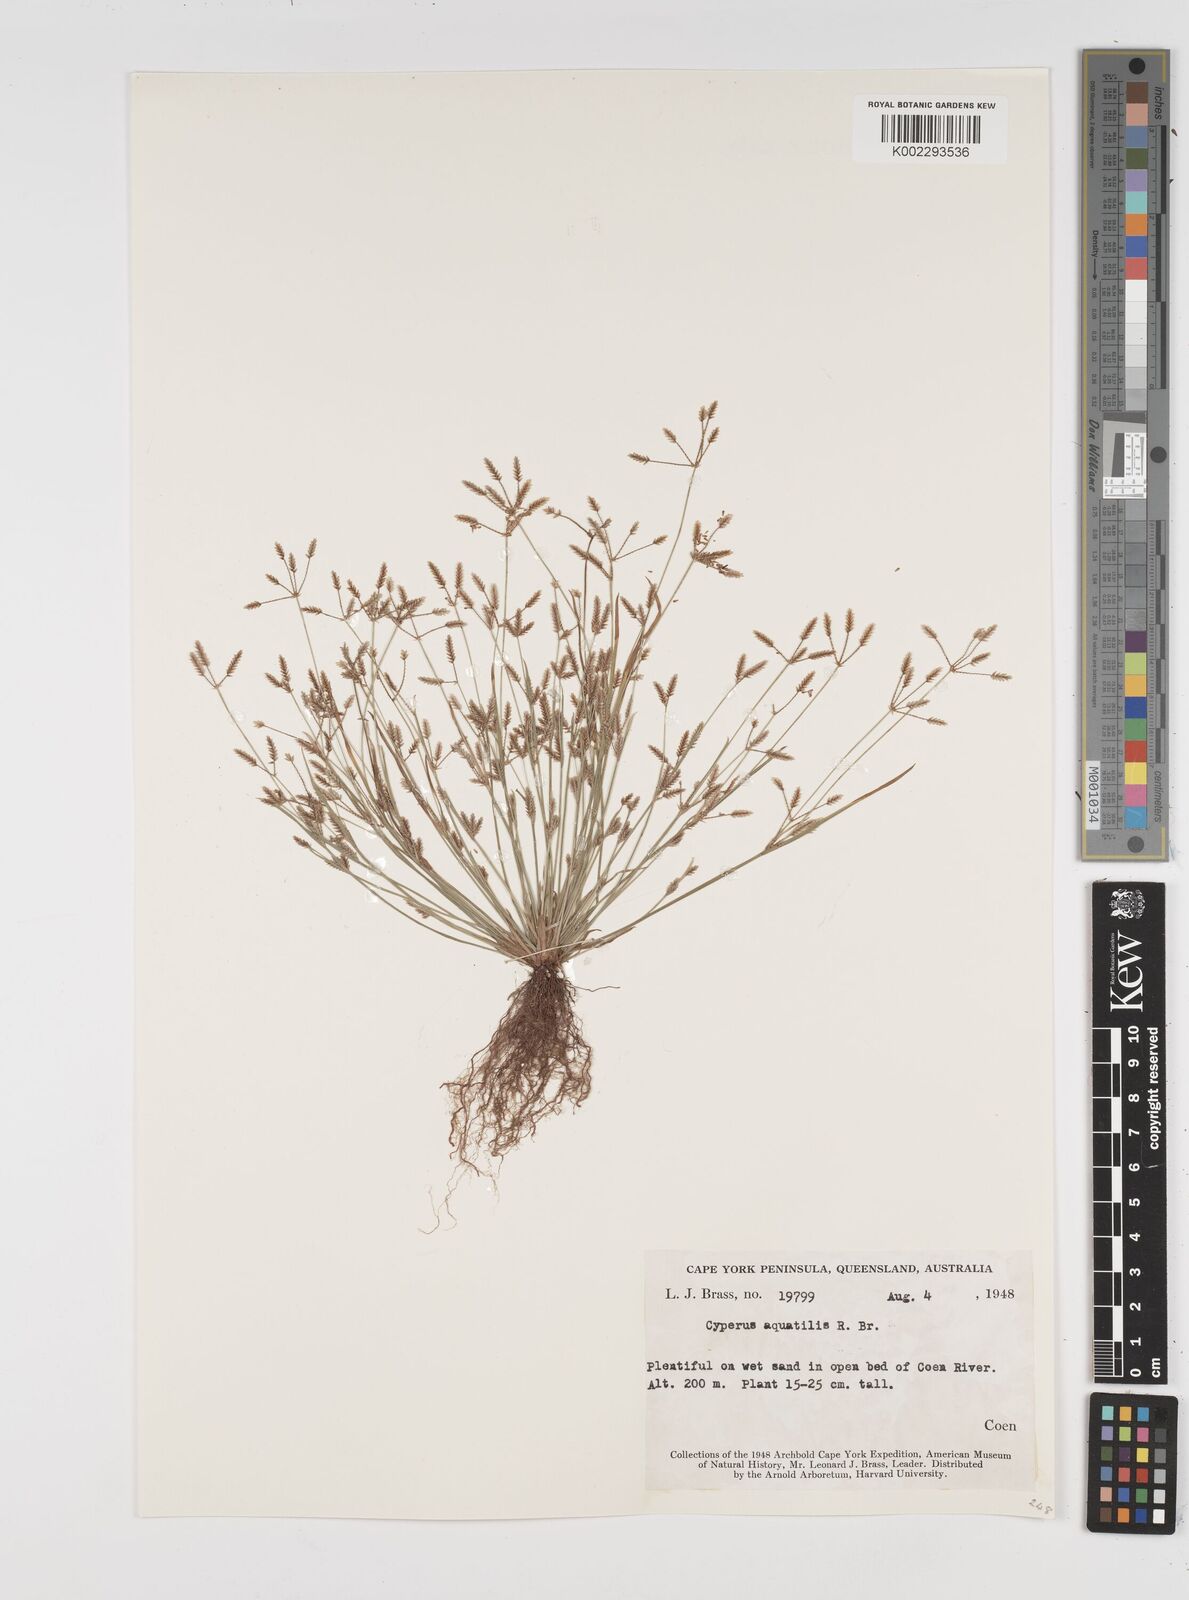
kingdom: Plantae
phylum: Tracheophyta
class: Liliopsida
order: Poales
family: Cyperaceae
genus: Cyperus
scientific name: Cyperus aquatilis
